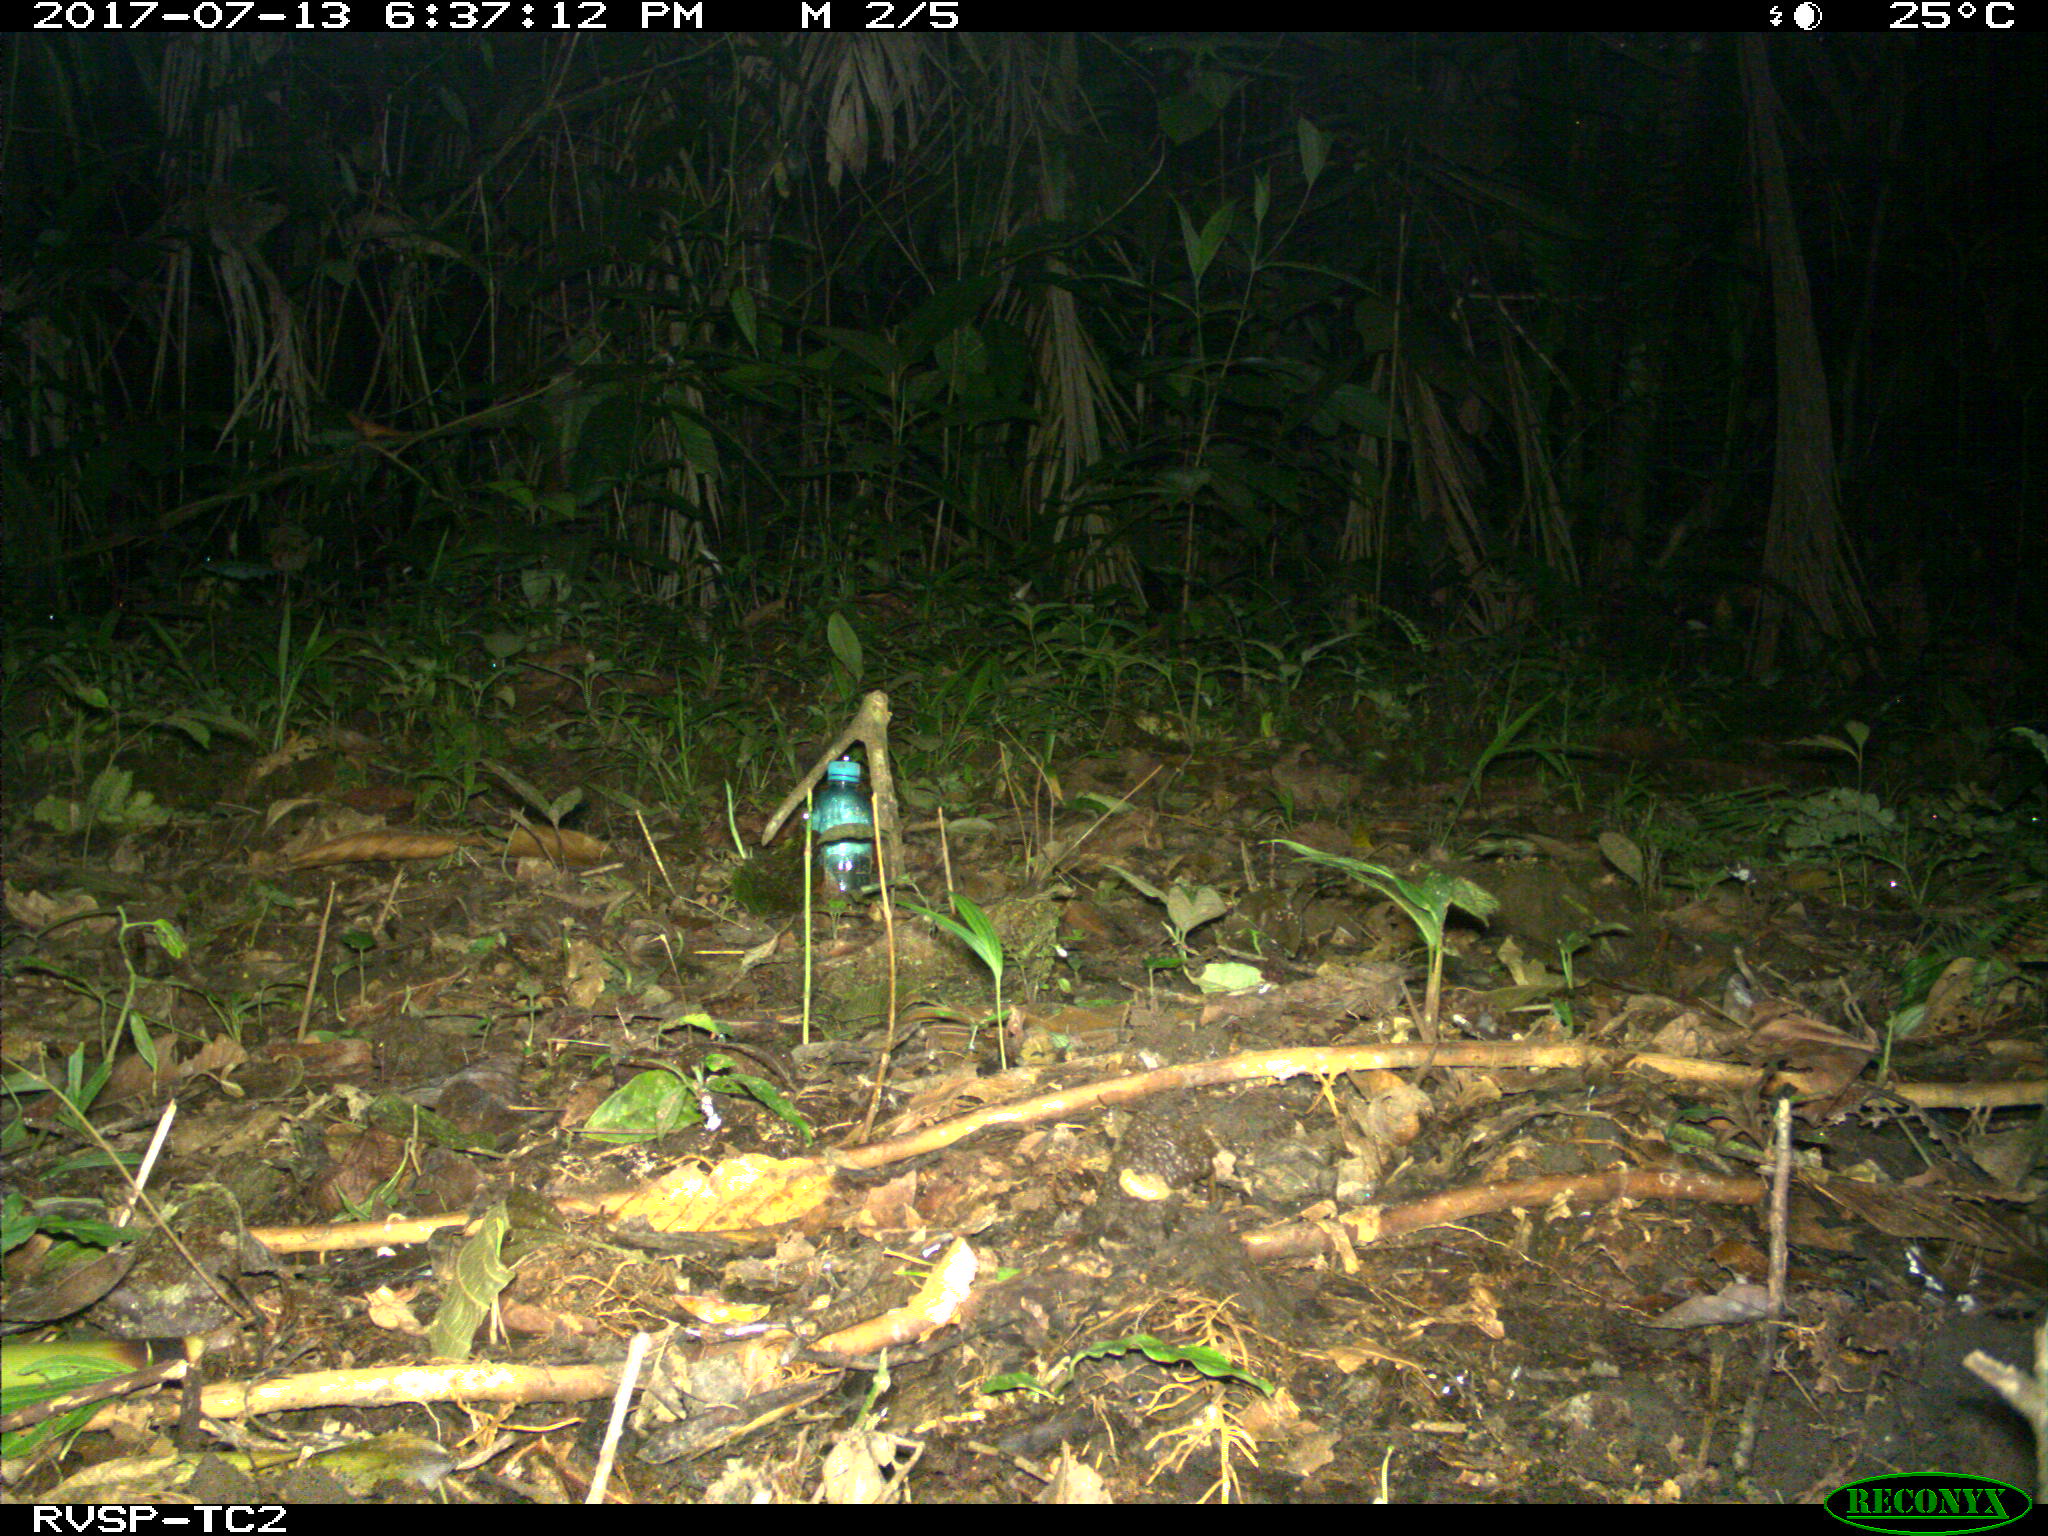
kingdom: Animalia
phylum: Chordata
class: Mammalia
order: Rodentia
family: Dasyproctidae
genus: Dasyprocta
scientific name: Dasyprocta punctata
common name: Central american agouti
